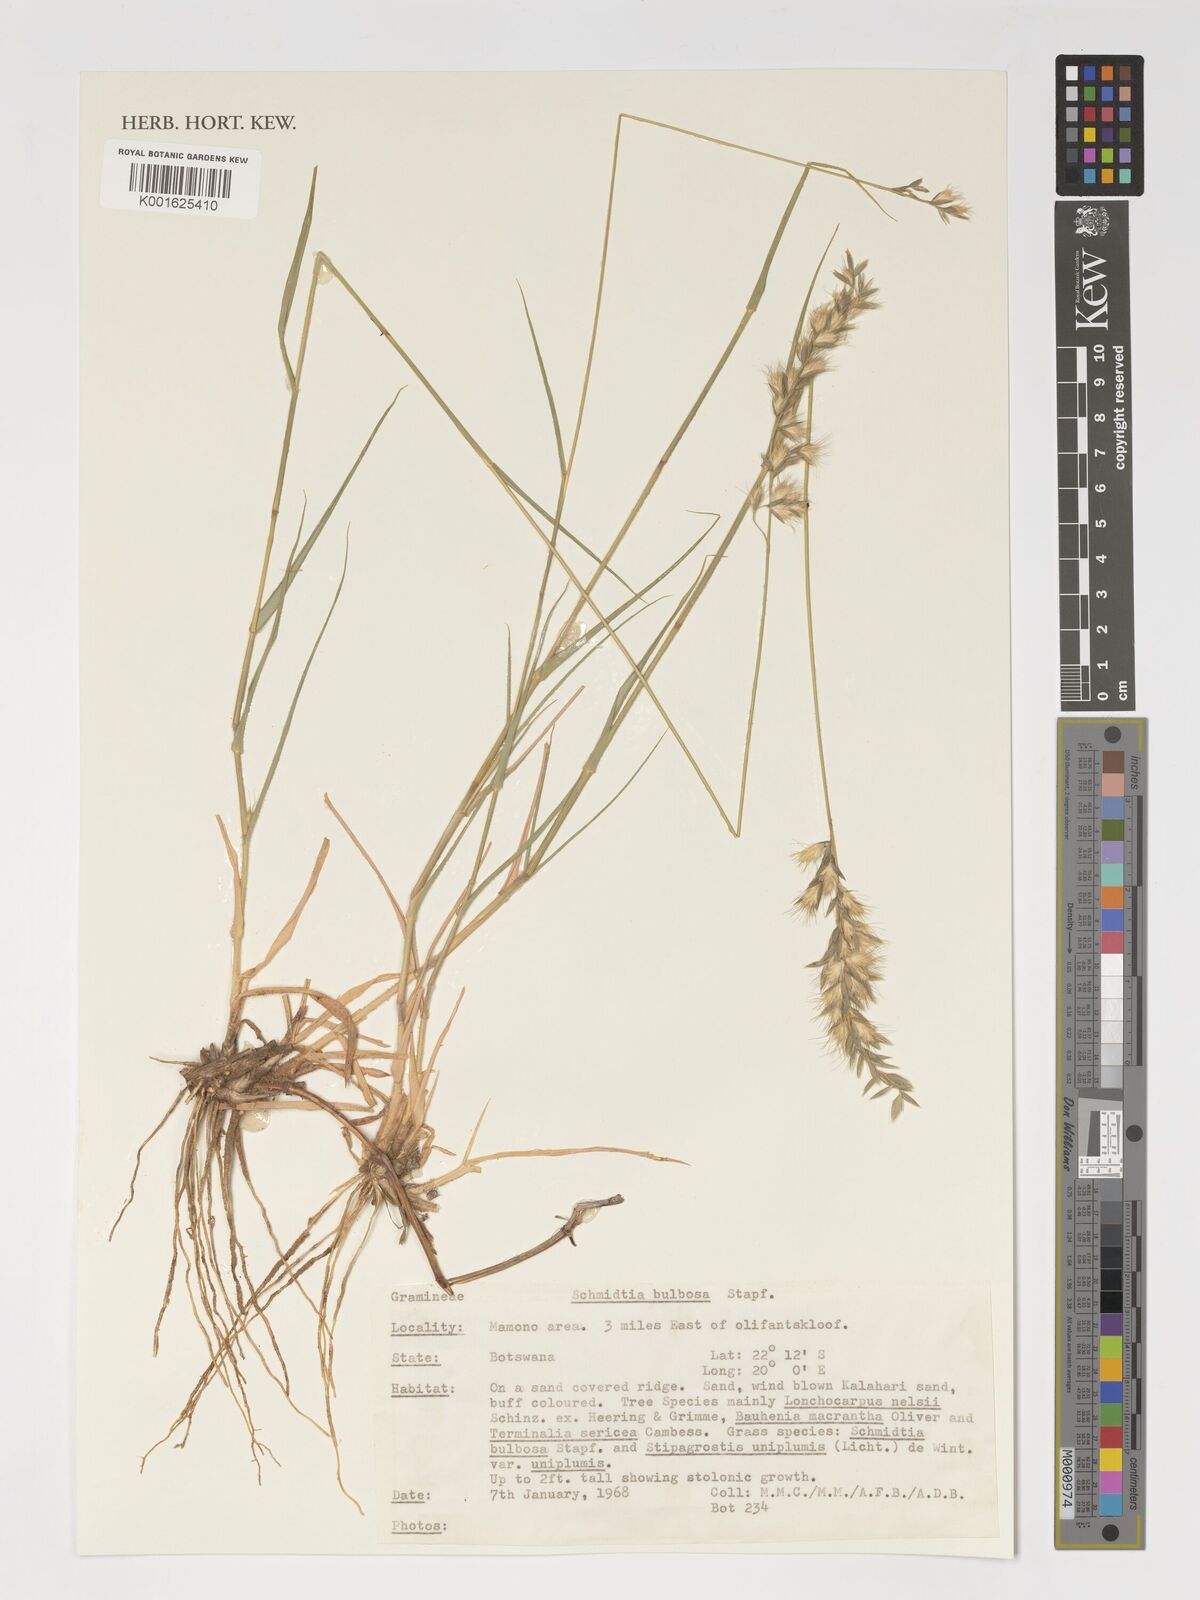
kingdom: Plantae
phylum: Tracheophyta
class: Liliopsida
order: Poales
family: Poaceae
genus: Schmidtia
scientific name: Schmidtia pappophoroides
